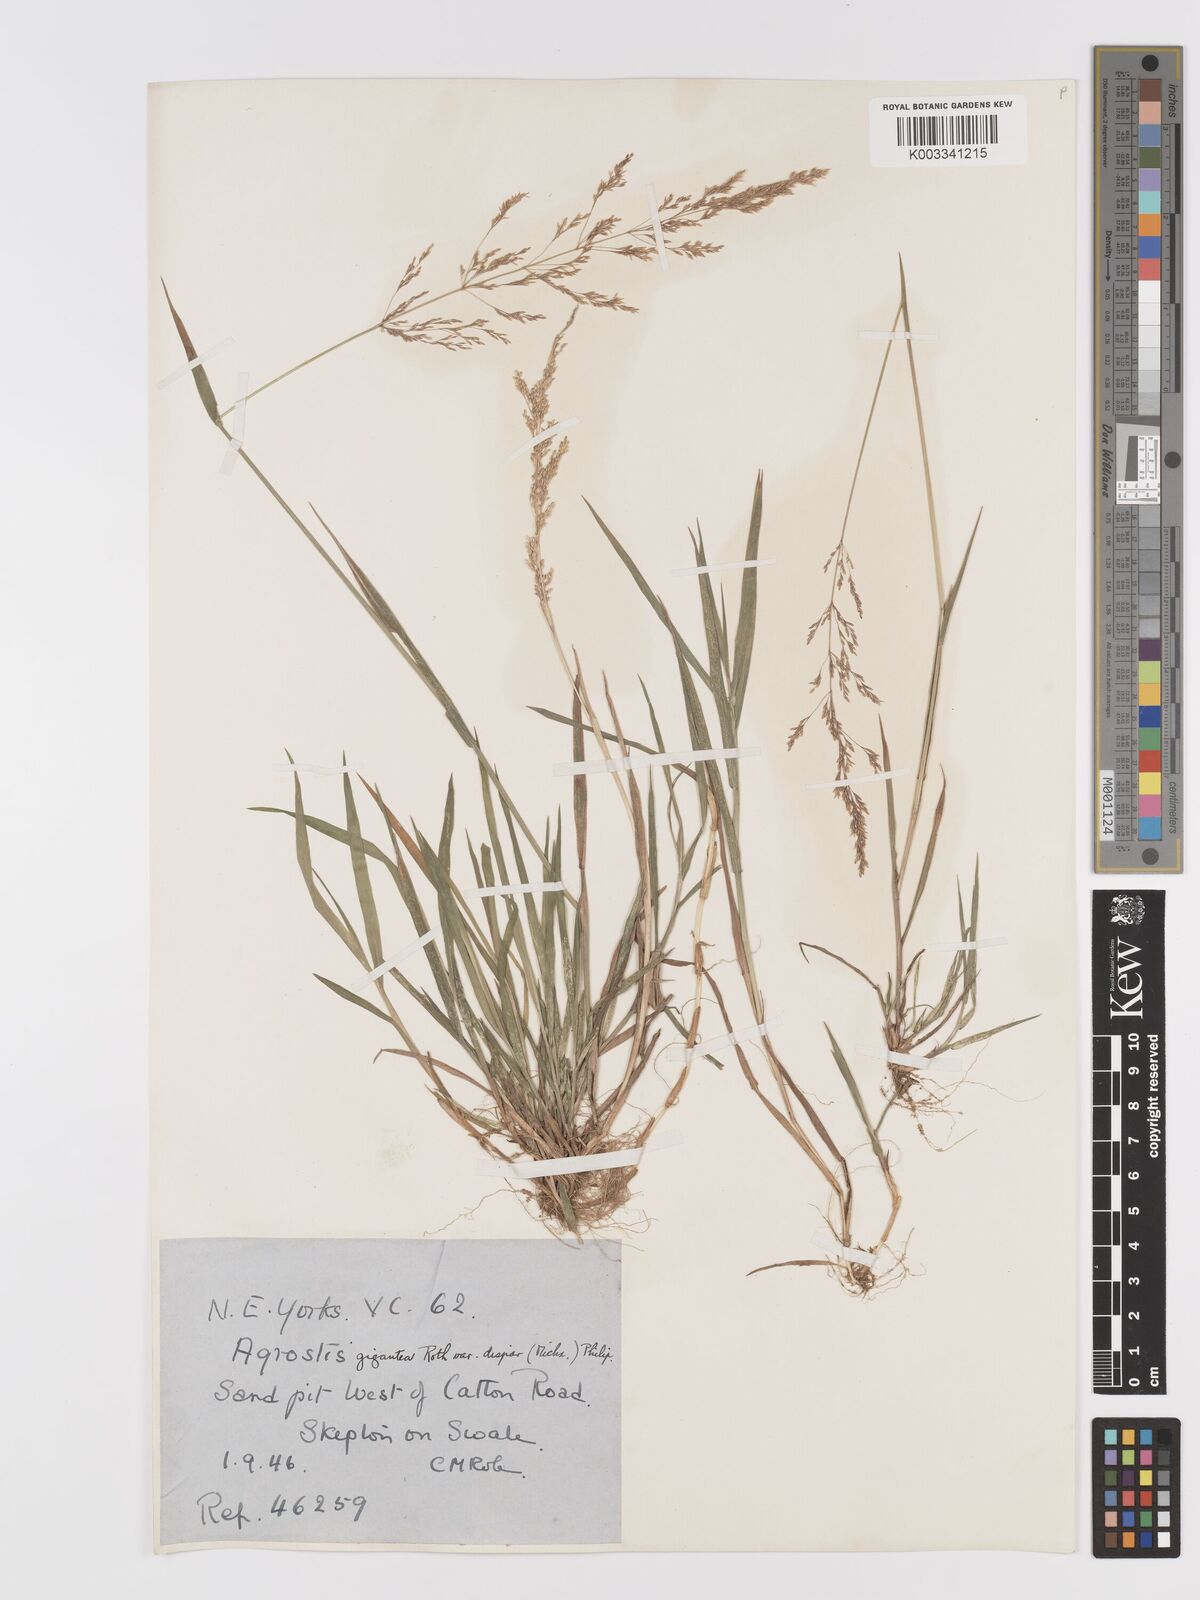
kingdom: Plantae
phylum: Tracheophyta
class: Liliopsida
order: Poales
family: Poaceae
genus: Agrostis
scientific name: Agrostis gigantea
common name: Black bent
